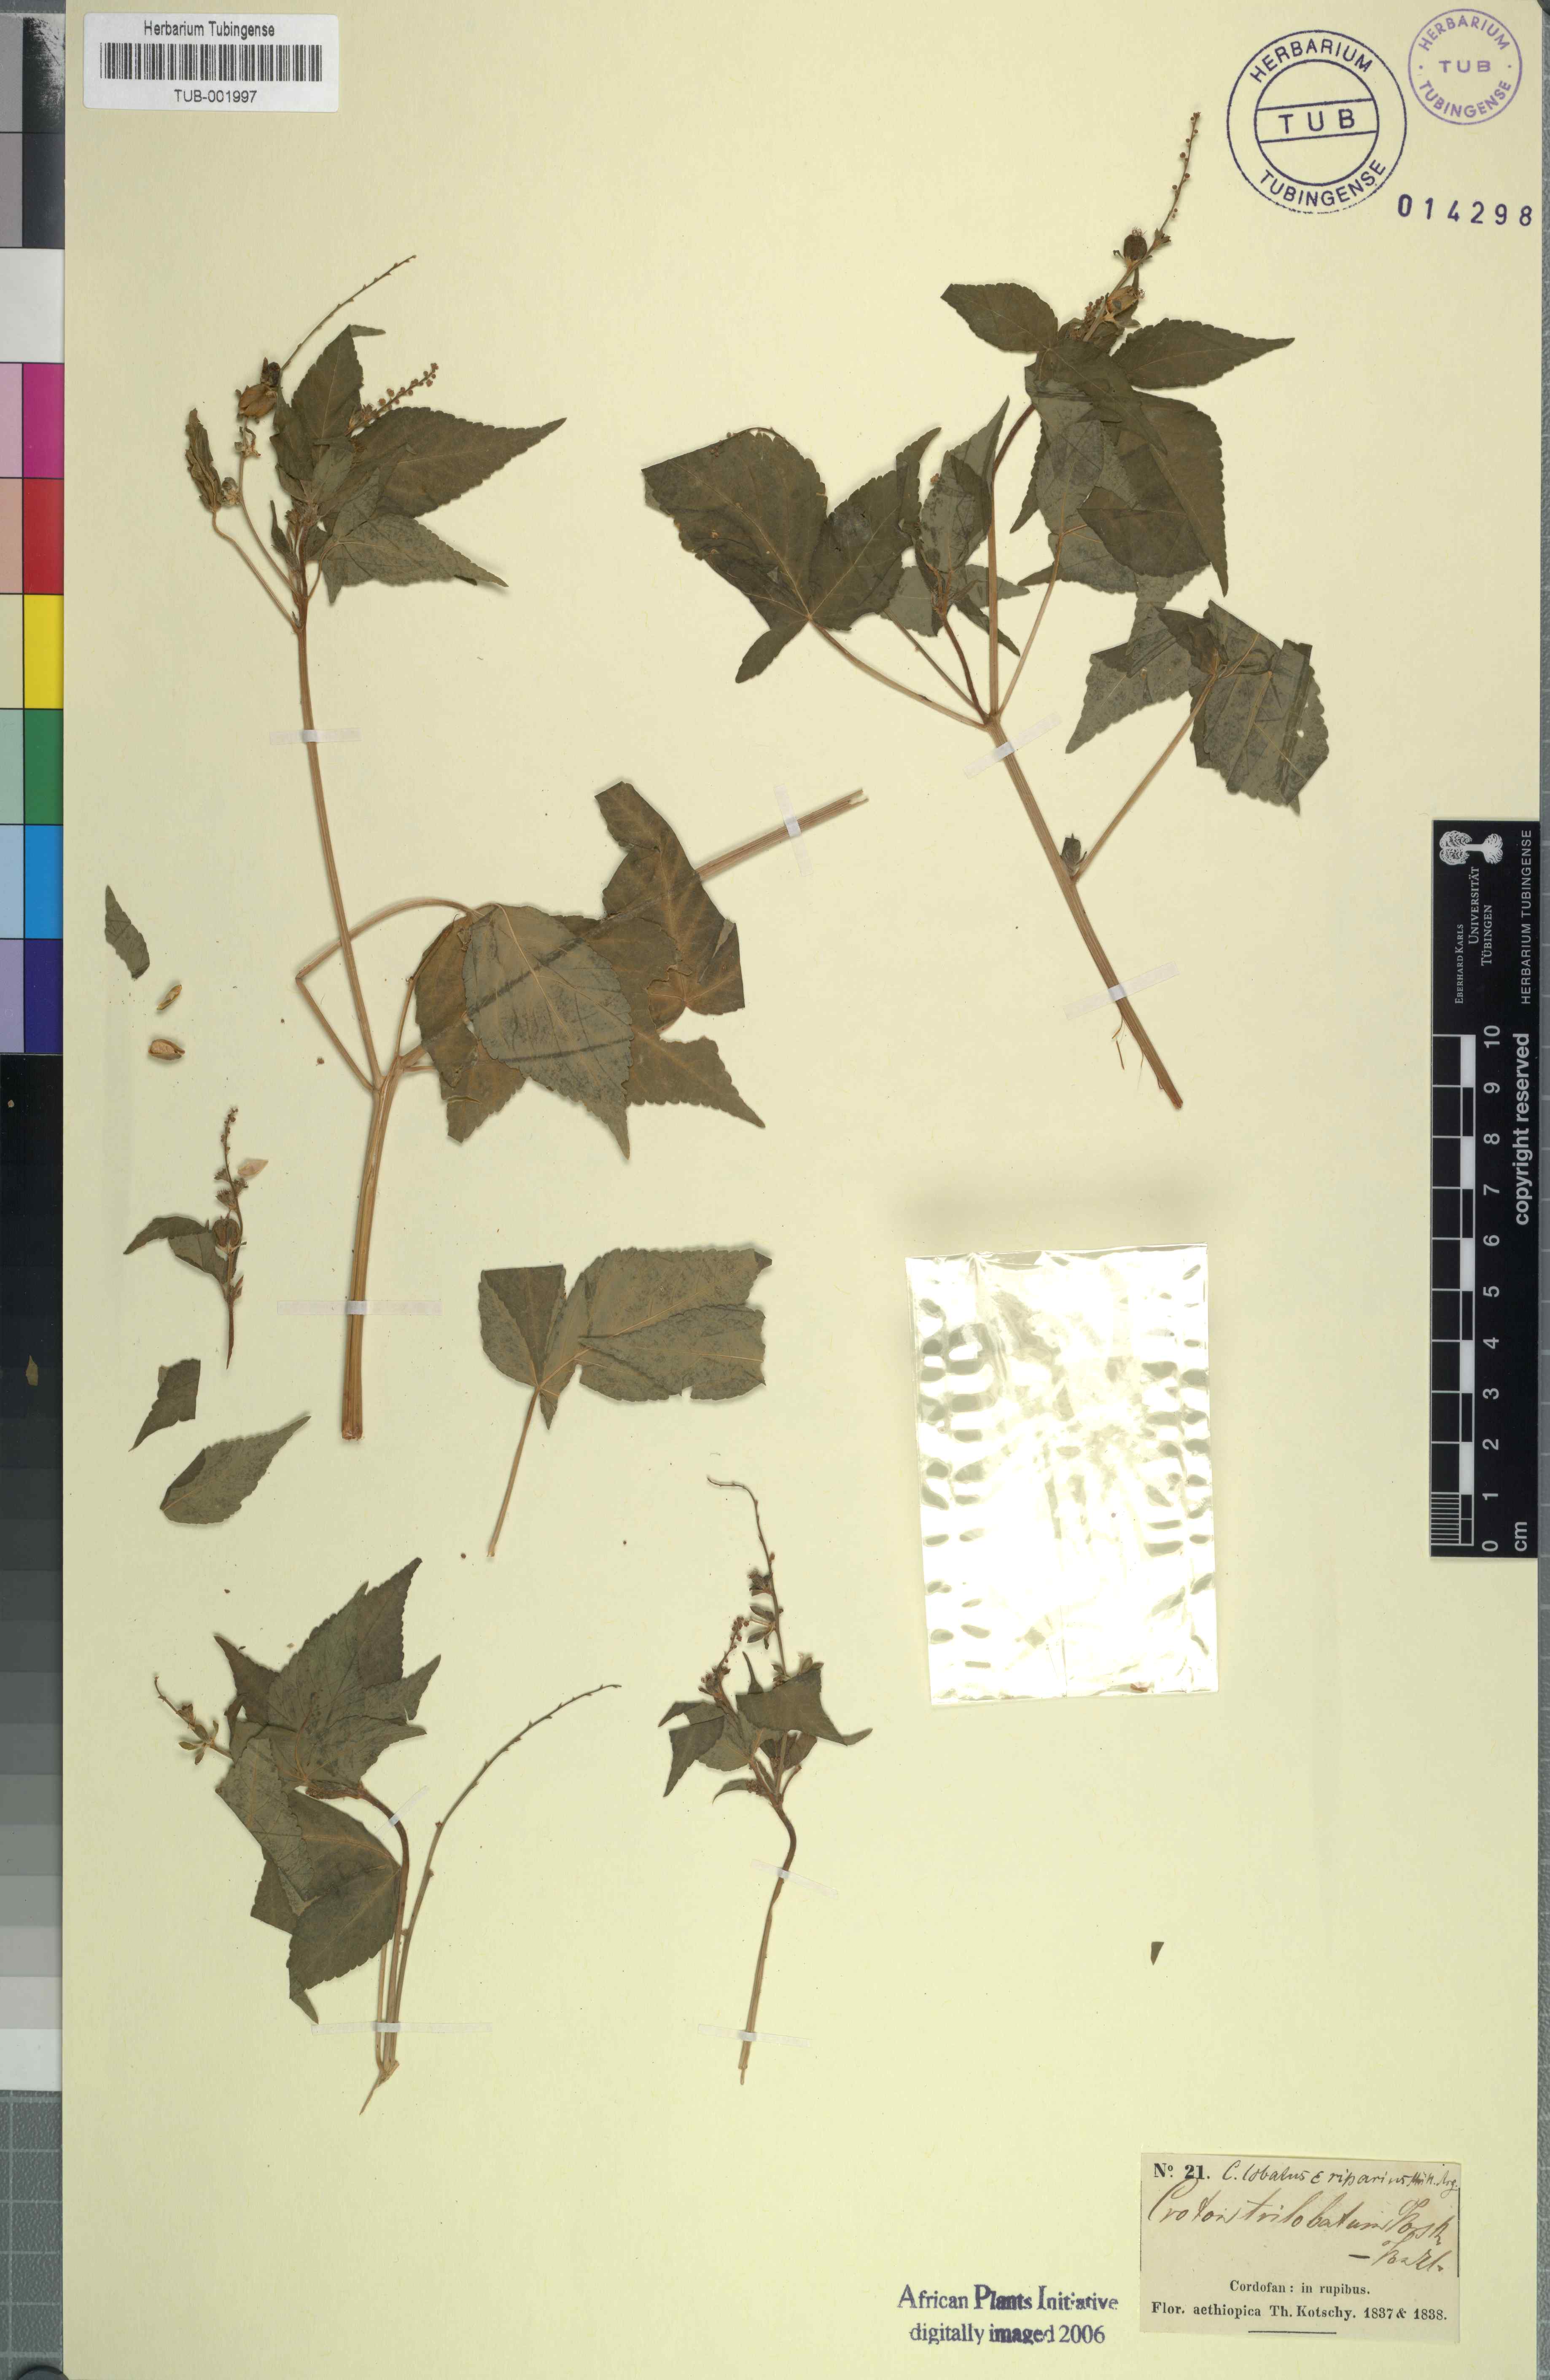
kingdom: Plantae
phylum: Tracheophyta
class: Magnoliopsida
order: Malpighiales
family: Euphorbiaceae
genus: Astraea
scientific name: Astraea lobata
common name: Lobed croton
